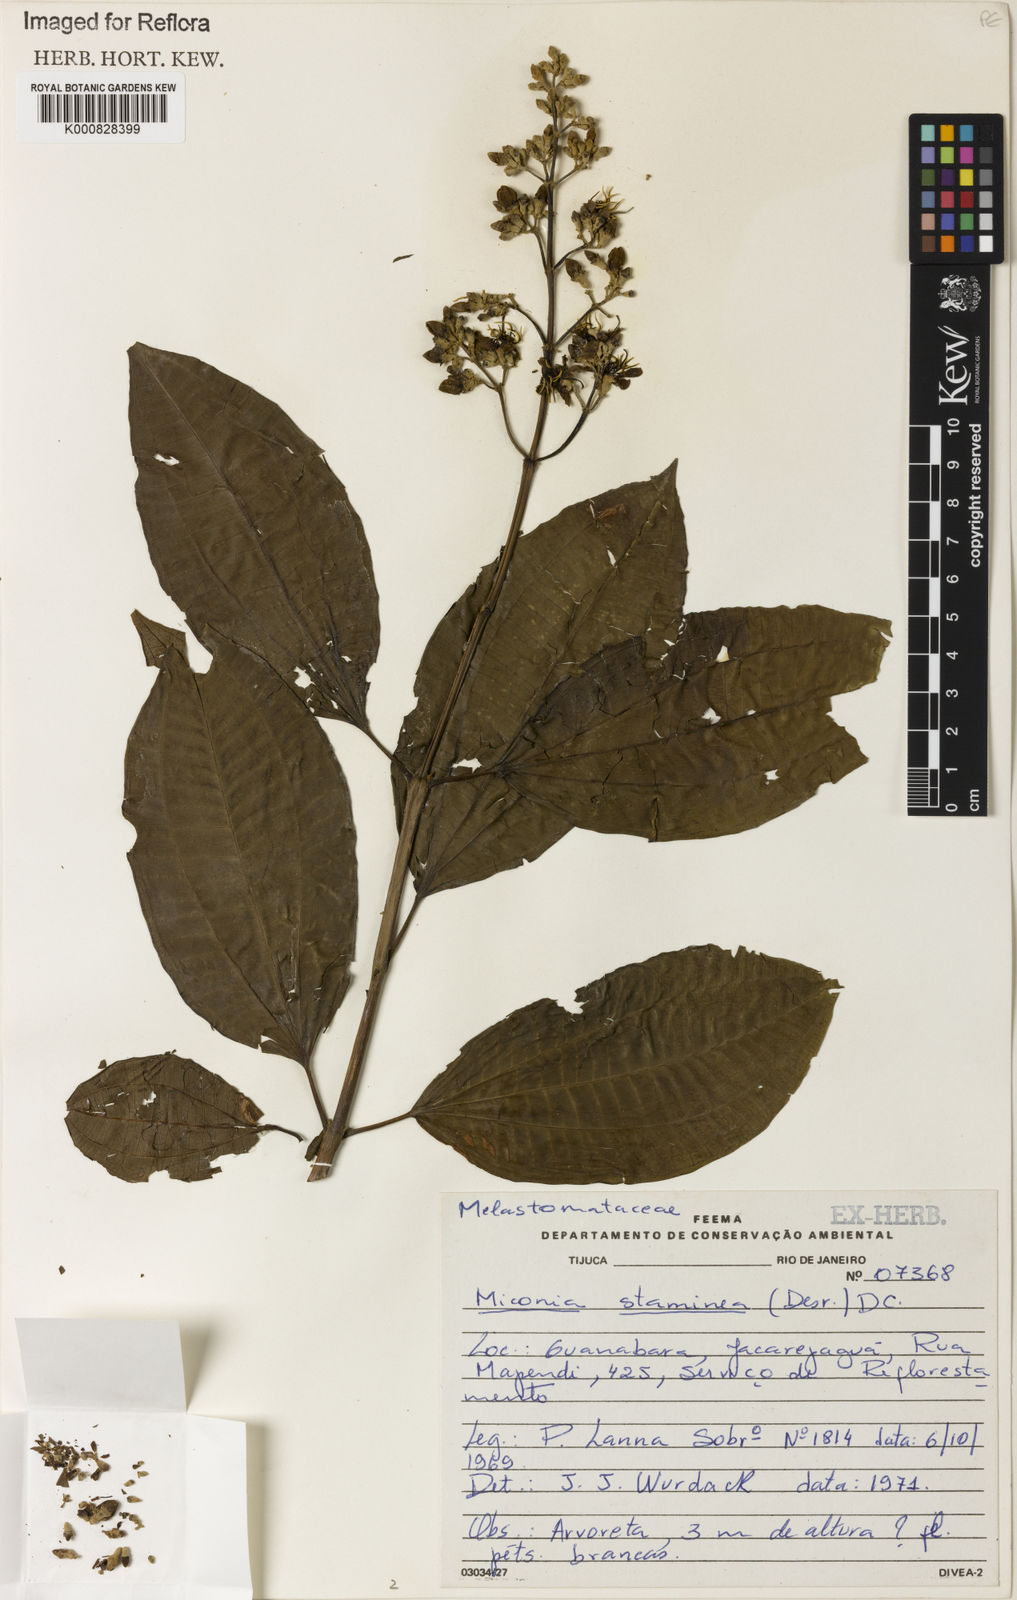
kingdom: Plantae
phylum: Tracheophyta
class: Magnoliopsida
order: Myrtales
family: Melastomataceae
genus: Miconia
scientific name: Miconia staminea
